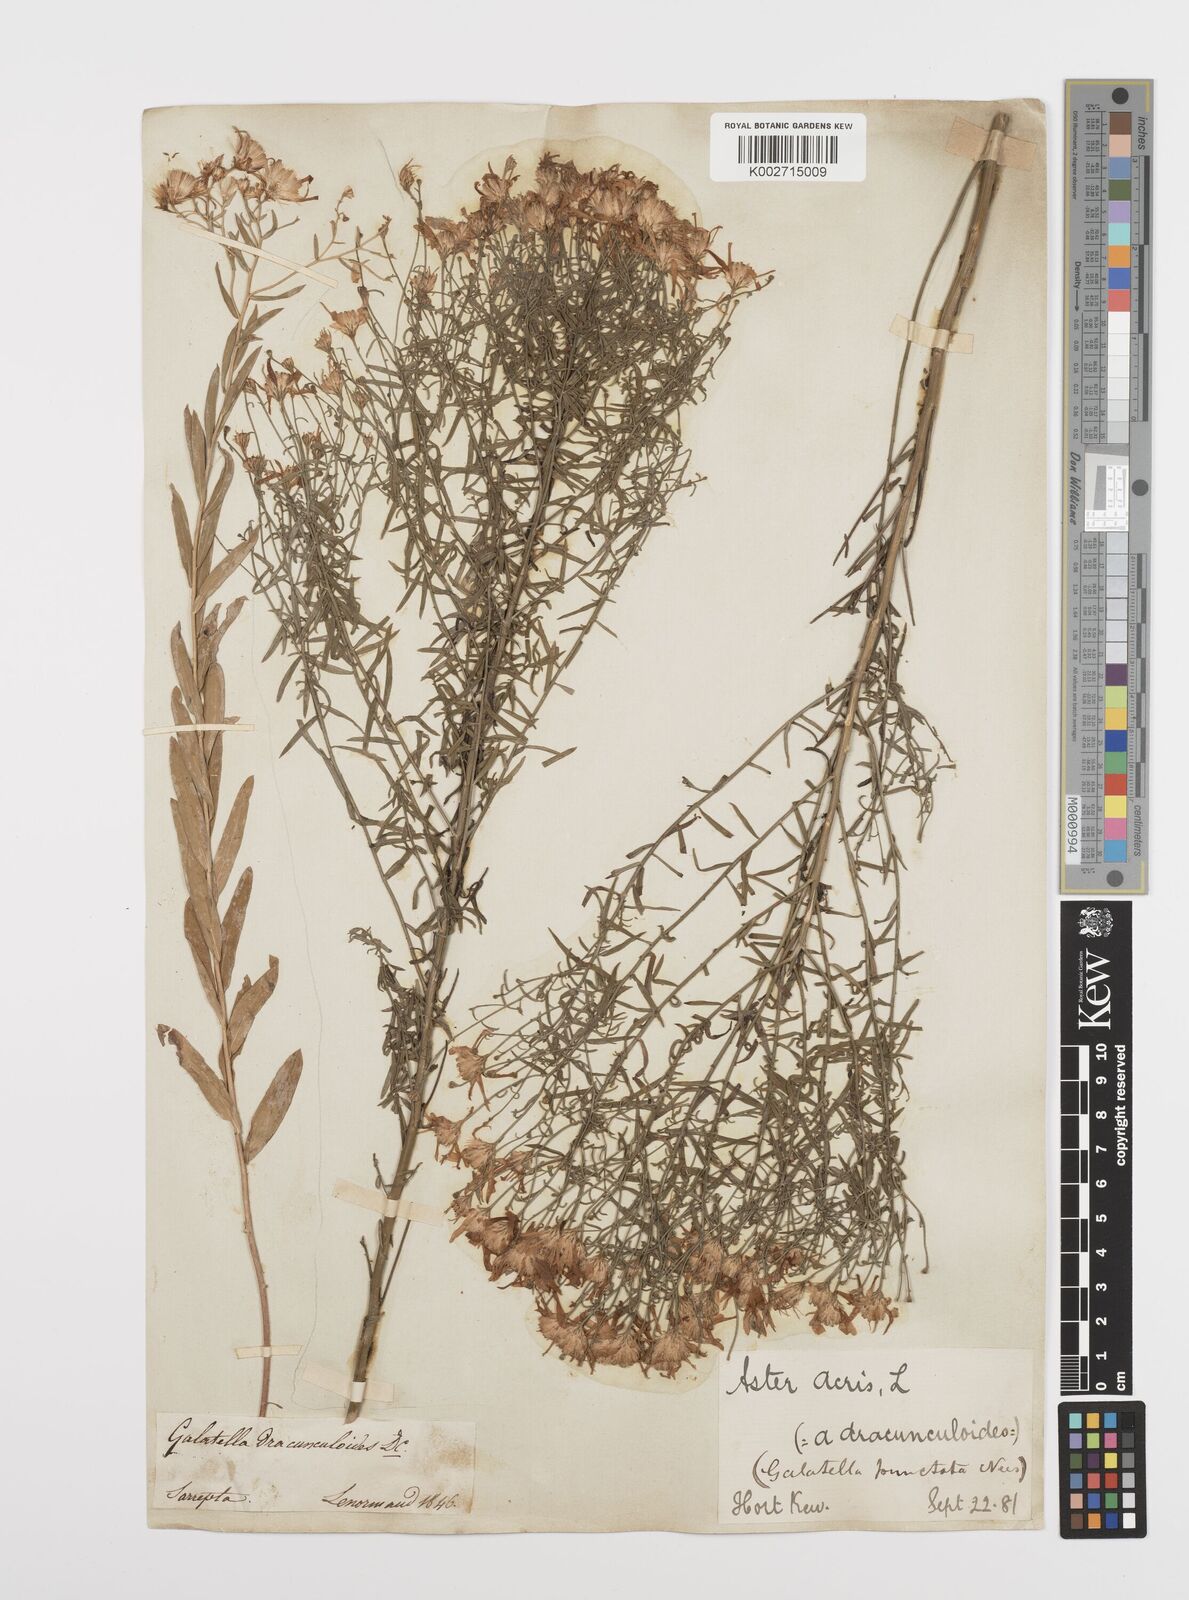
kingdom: Plantae
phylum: Tracheophyta
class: Magnoliopsida
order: Asterales
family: Asteraceae
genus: Aster
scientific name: Aster
